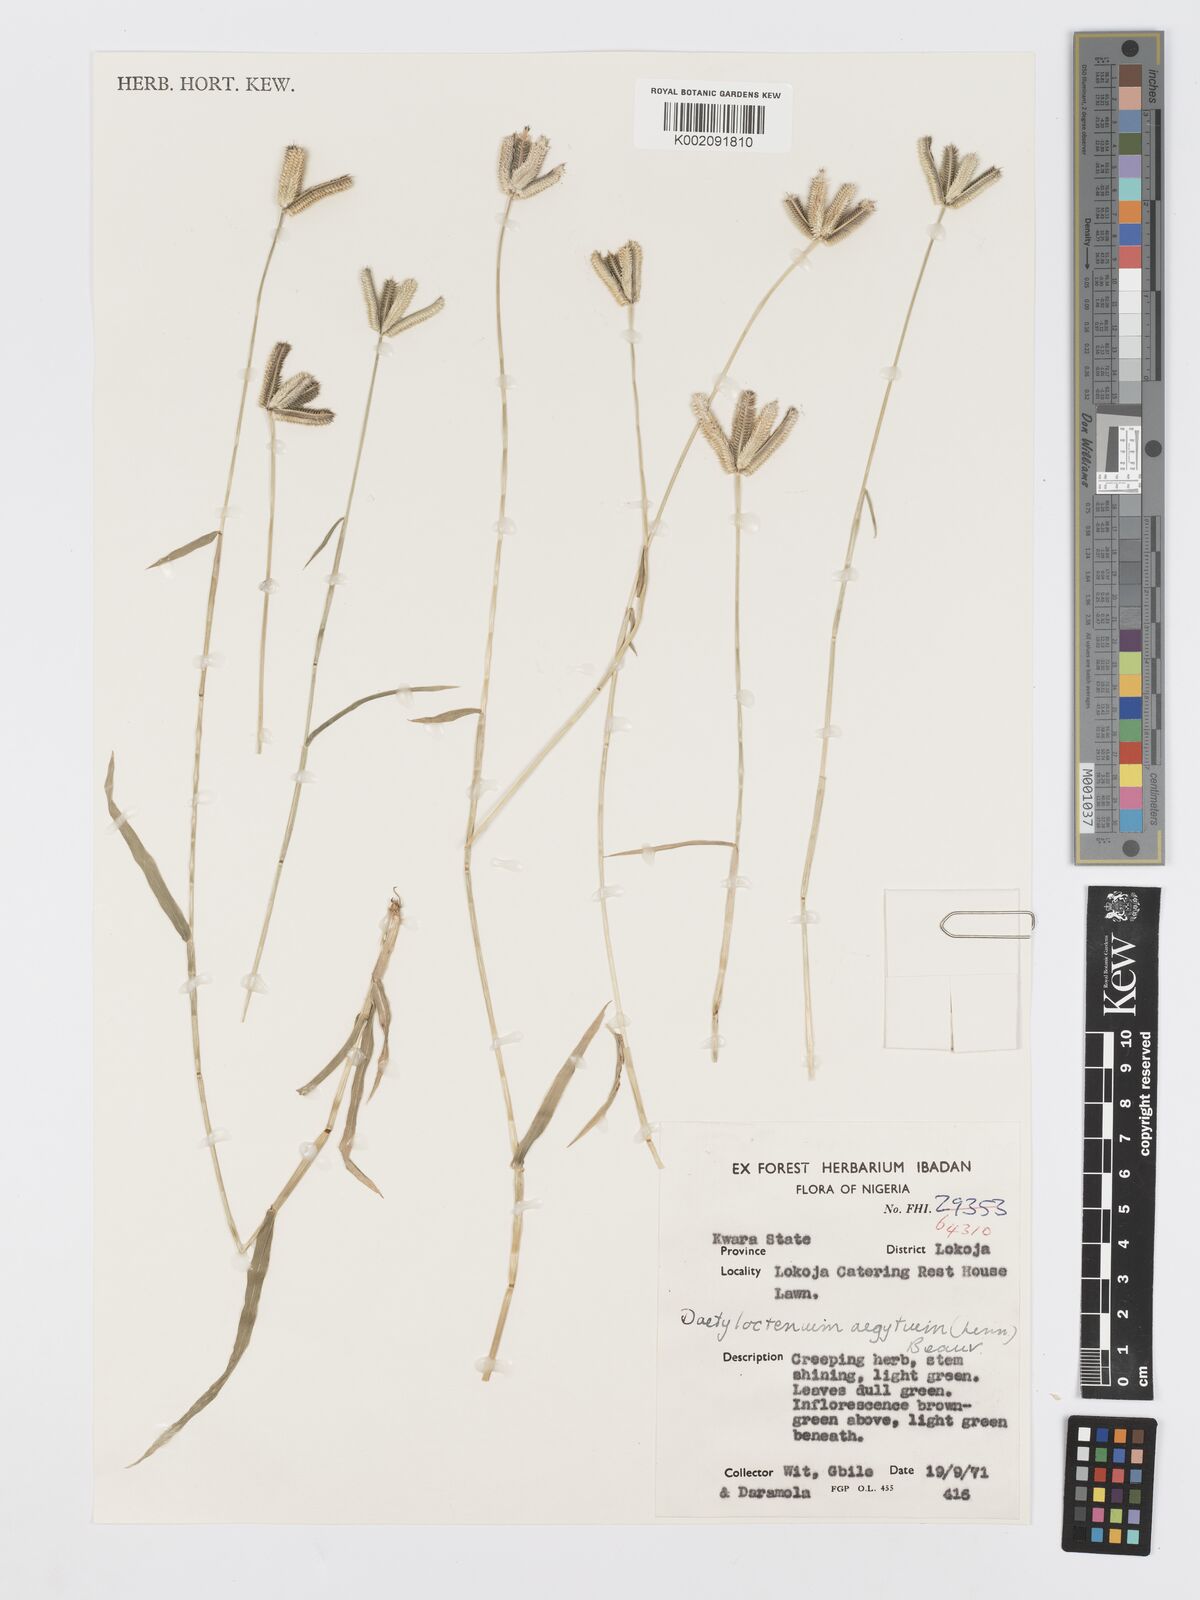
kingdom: Plantae
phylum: Tracheophyta
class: Liliopsida
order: Poales
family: Poaceae
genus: Dactyloctenium
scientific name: Dactyloctenium aegyptium
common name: Egyptian grass
